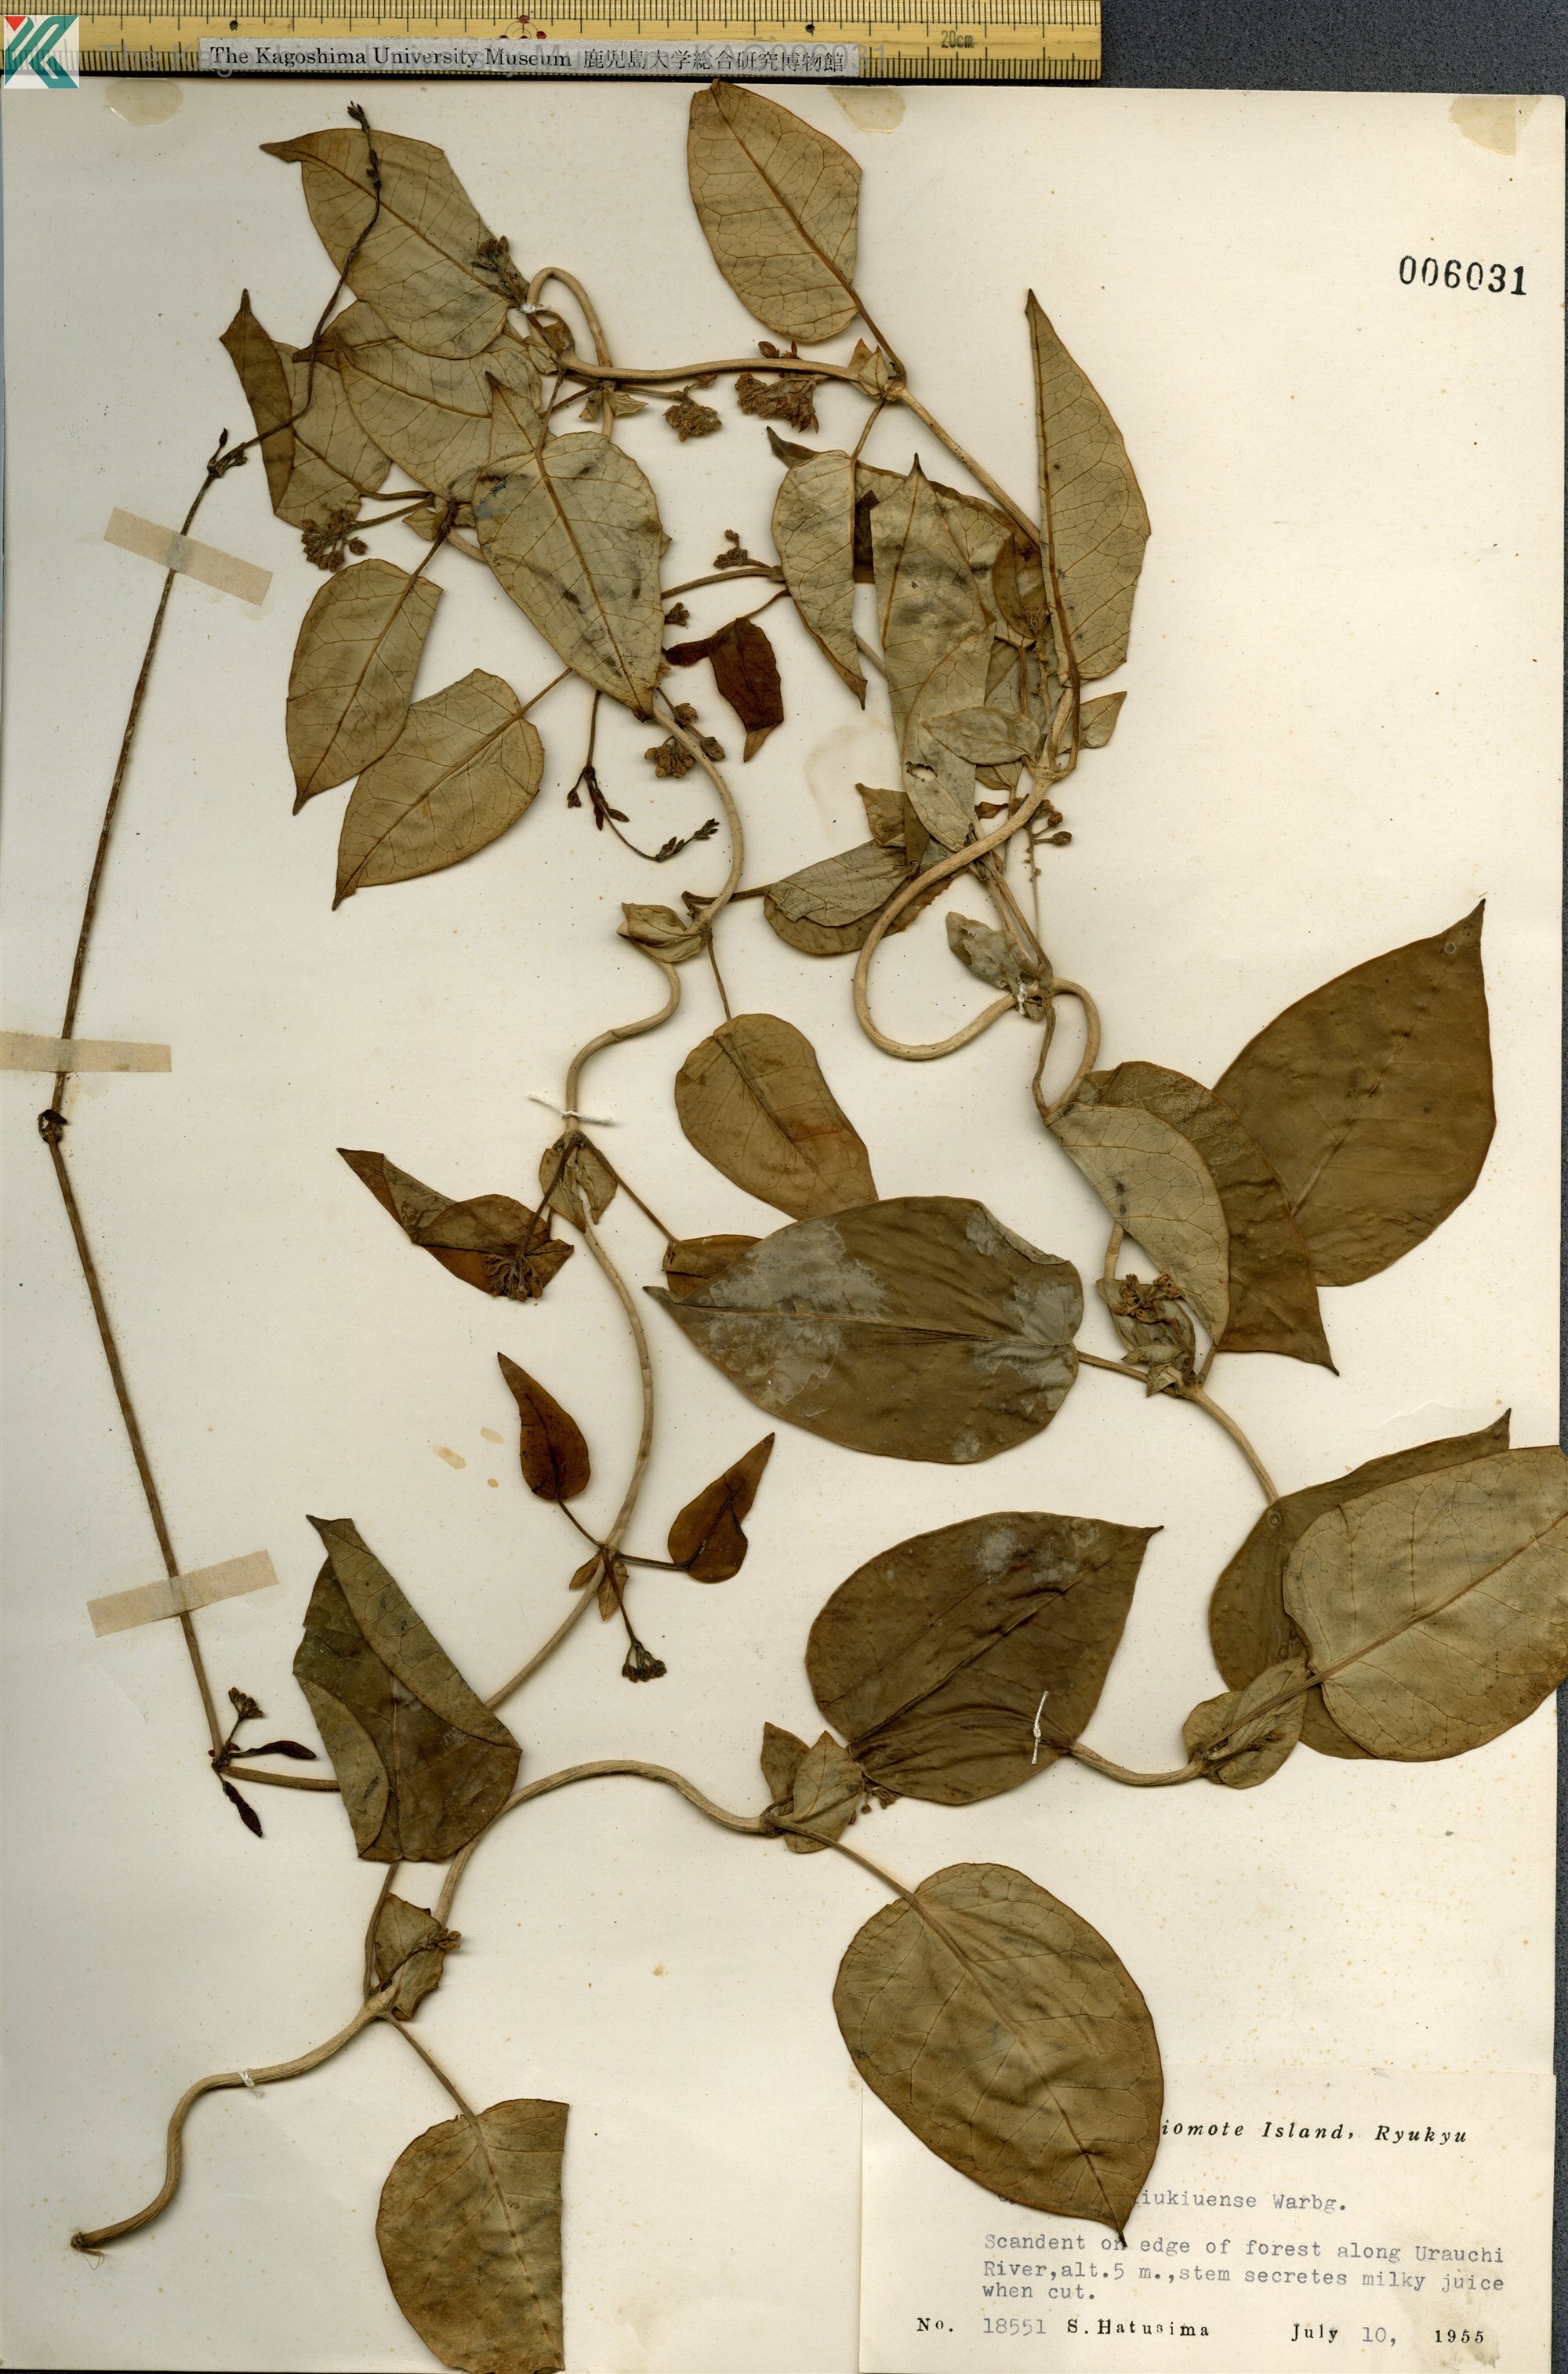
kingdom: Plantae
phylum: Tracheophyta
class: Magnoliopsida
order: Gentianales
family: Apocynaceae
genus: Cynanchum
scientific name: Cynanchum liukiuense
